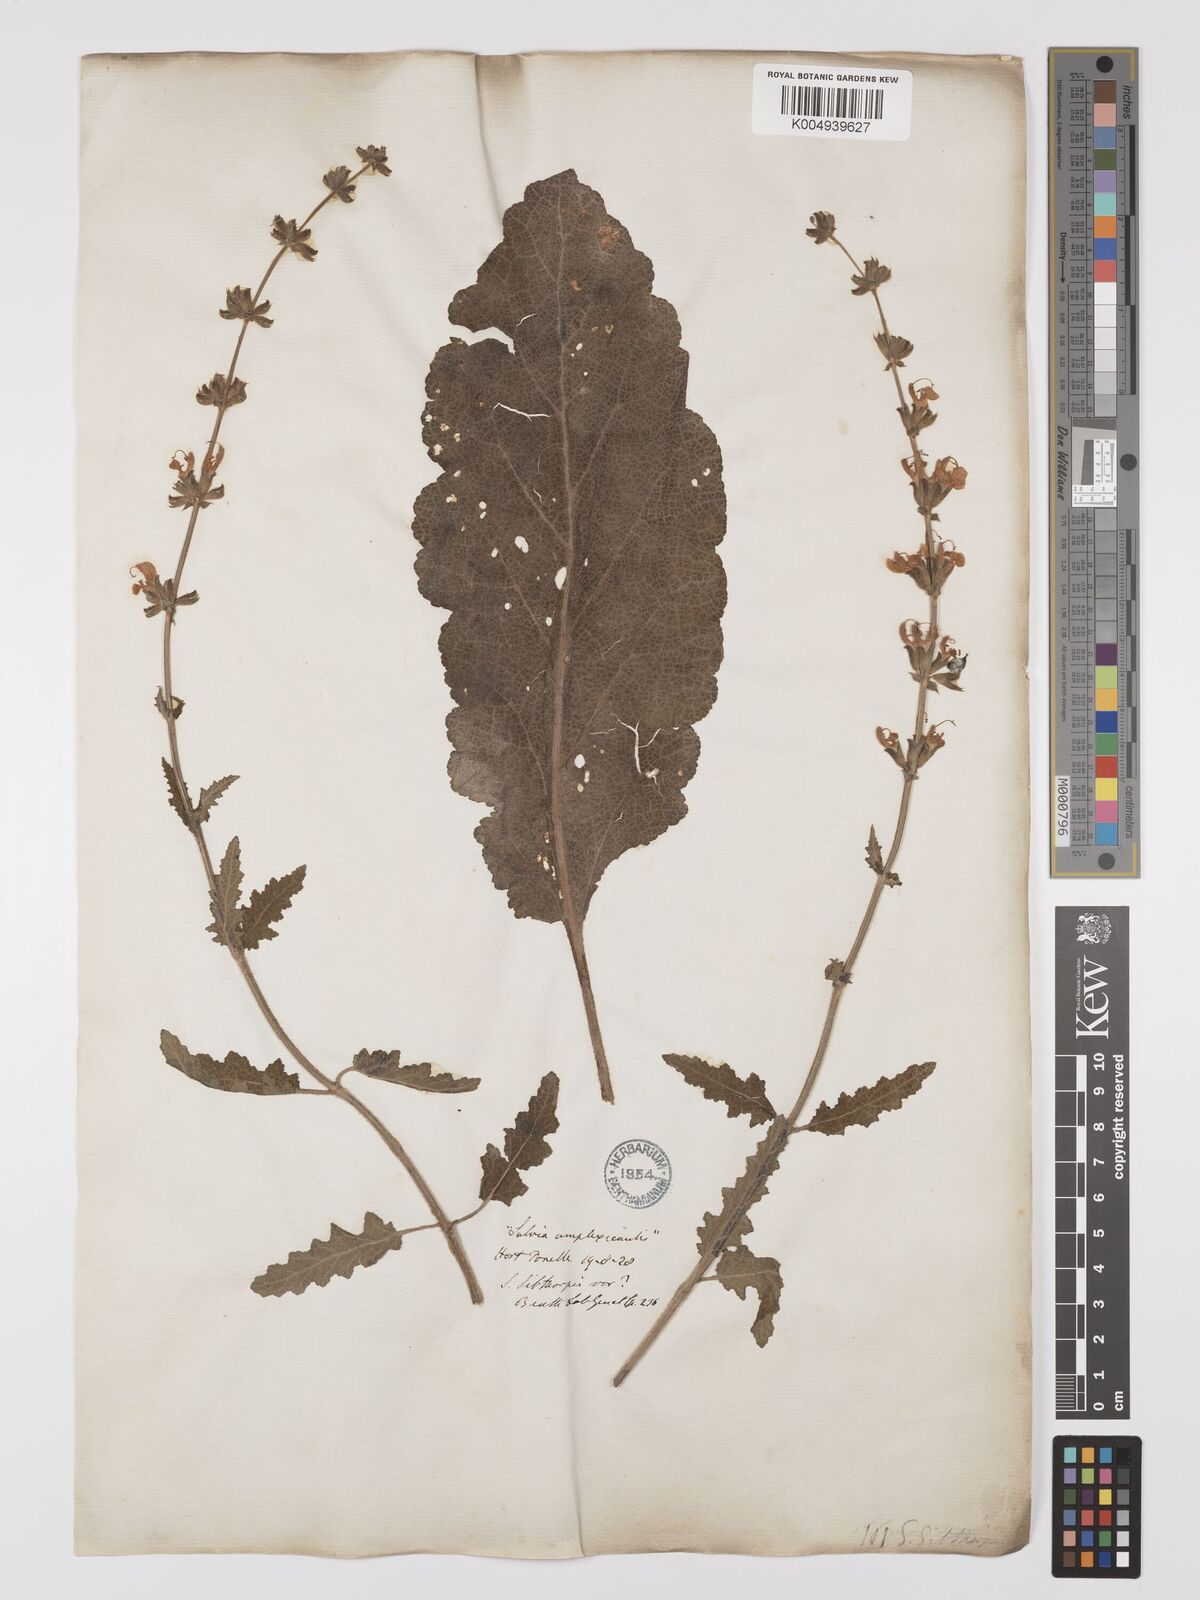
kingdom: Plantae
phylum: Tracheophyta
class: Magnoliopsida
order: Lamiales
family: Lamiaceae
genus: Salvia
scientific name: Salvia
